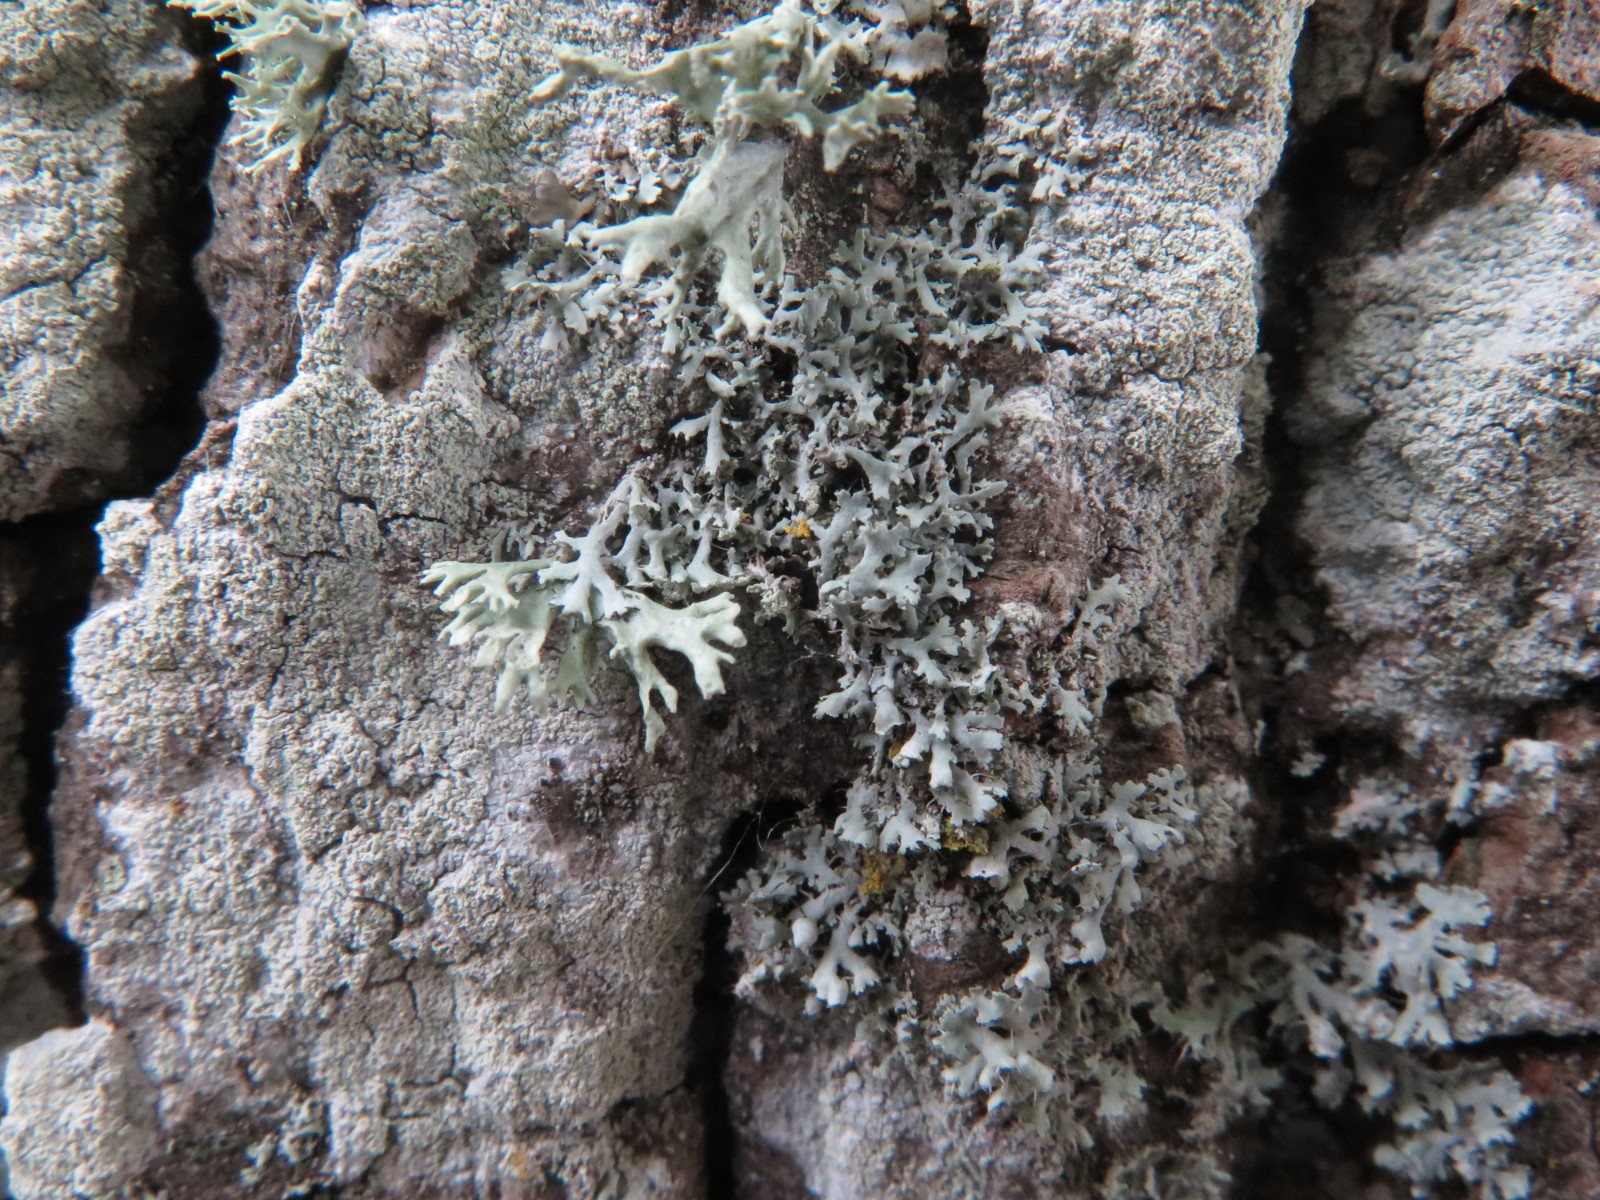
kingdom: Fungi
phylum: Ascomycota
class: Lecanoromycetes
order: Caliciales
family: Physciaceae
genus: Physcia
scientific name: Physcia tenella
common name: spæd rosetlav
